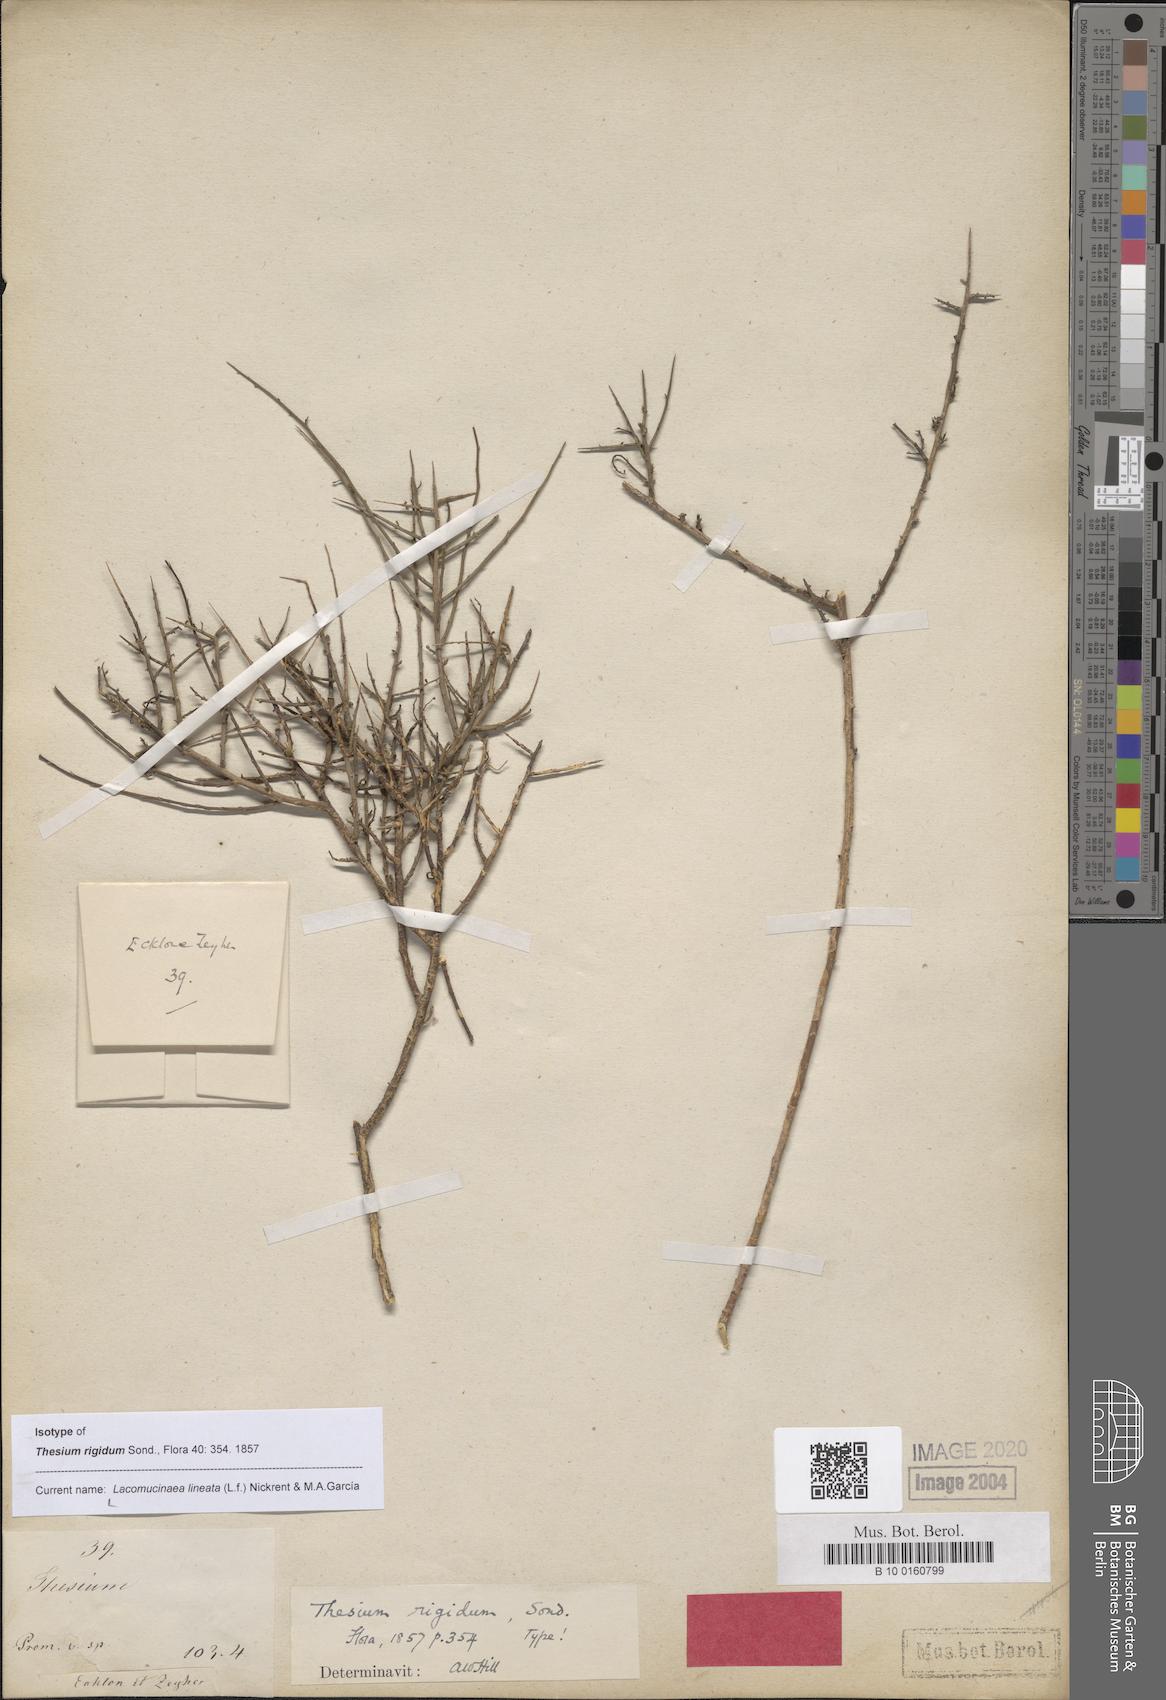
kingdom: Plantae
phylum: Tracheophyta
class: Magnoliopsida
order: Santalales
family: Thesiaceae
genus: Lacomucinaea
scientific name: Lacomucinaea lineata
